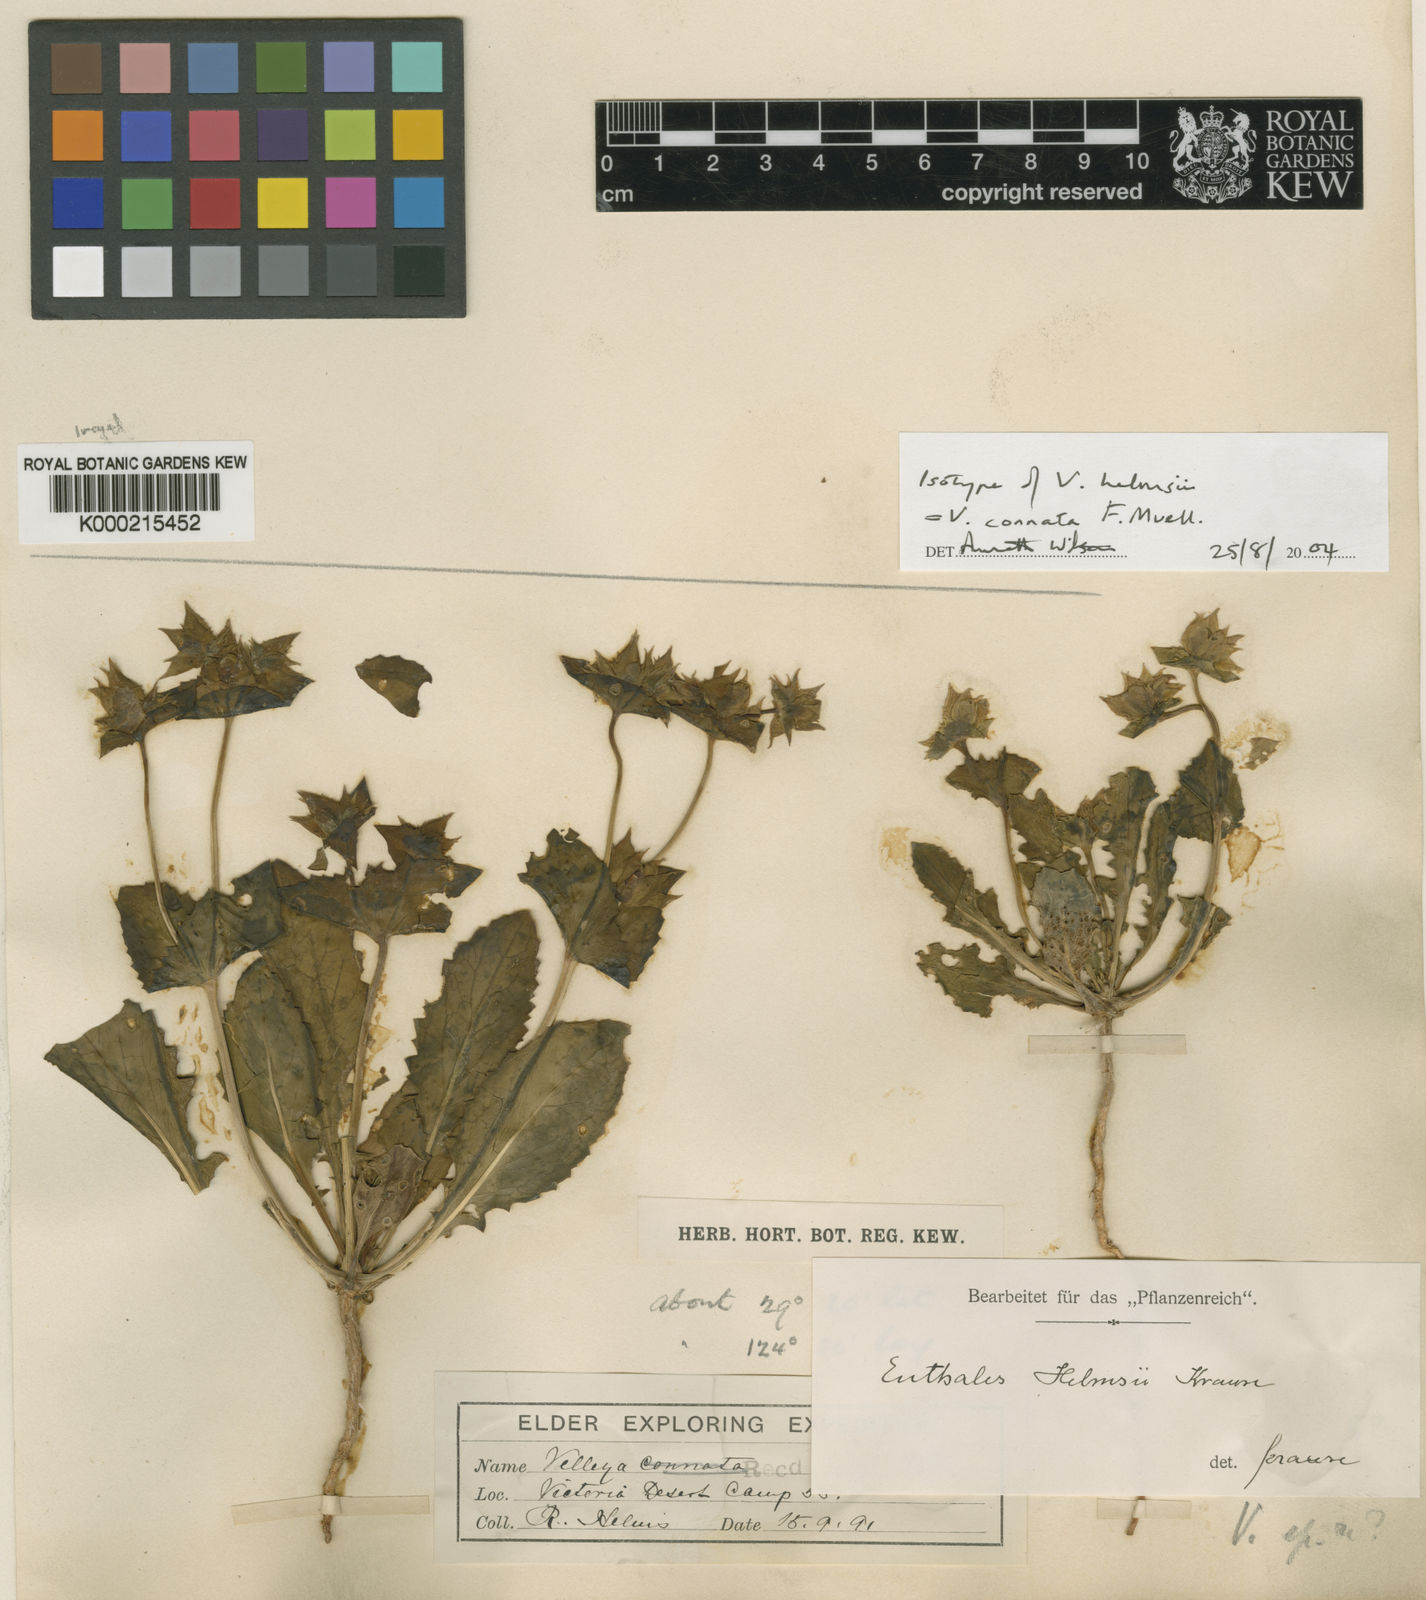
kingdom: Plantae
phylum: Tracheophyta
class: Magnoliopsida
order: Asterales
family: Goodeniaceae
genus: Goodenia
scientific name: Goodenia connata
